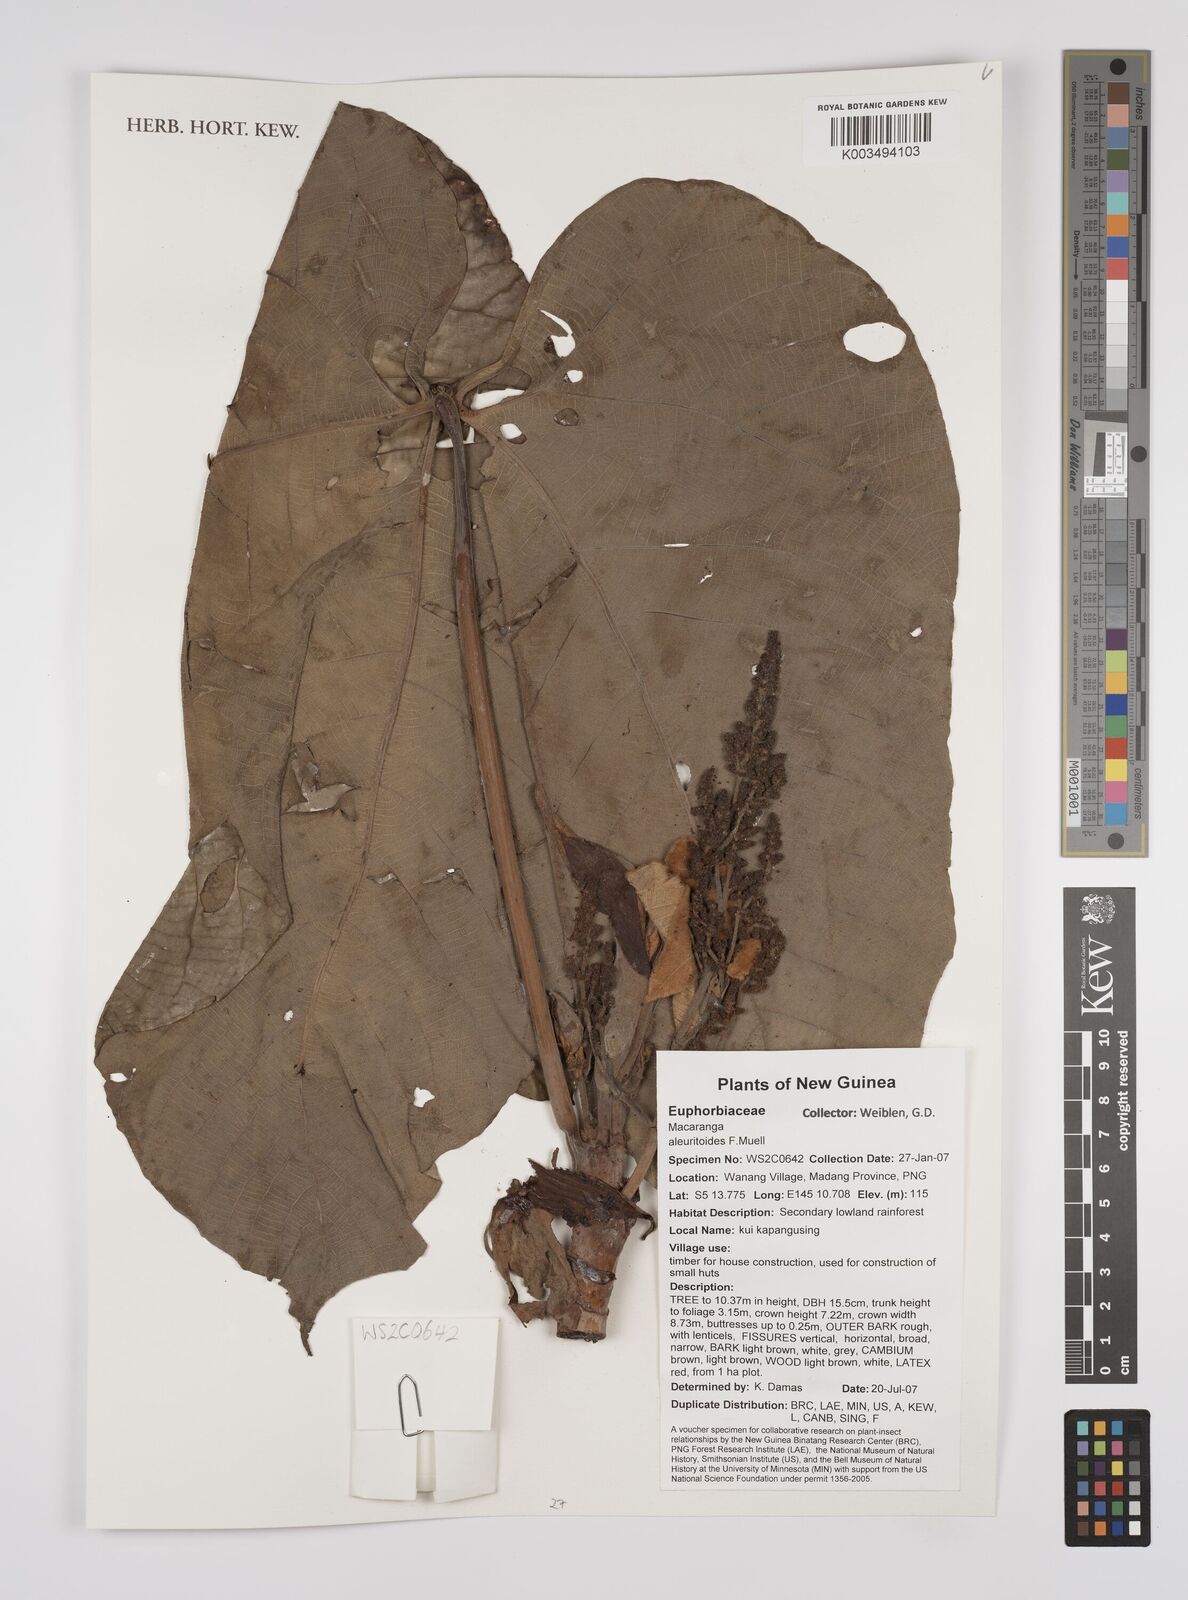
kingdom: Plantae
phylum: Tracheophyta
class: Magnoliopsida
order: Malpighiales
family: Euphorbiaceae
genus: Macaranga
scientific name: Macaranga aleuritoides
